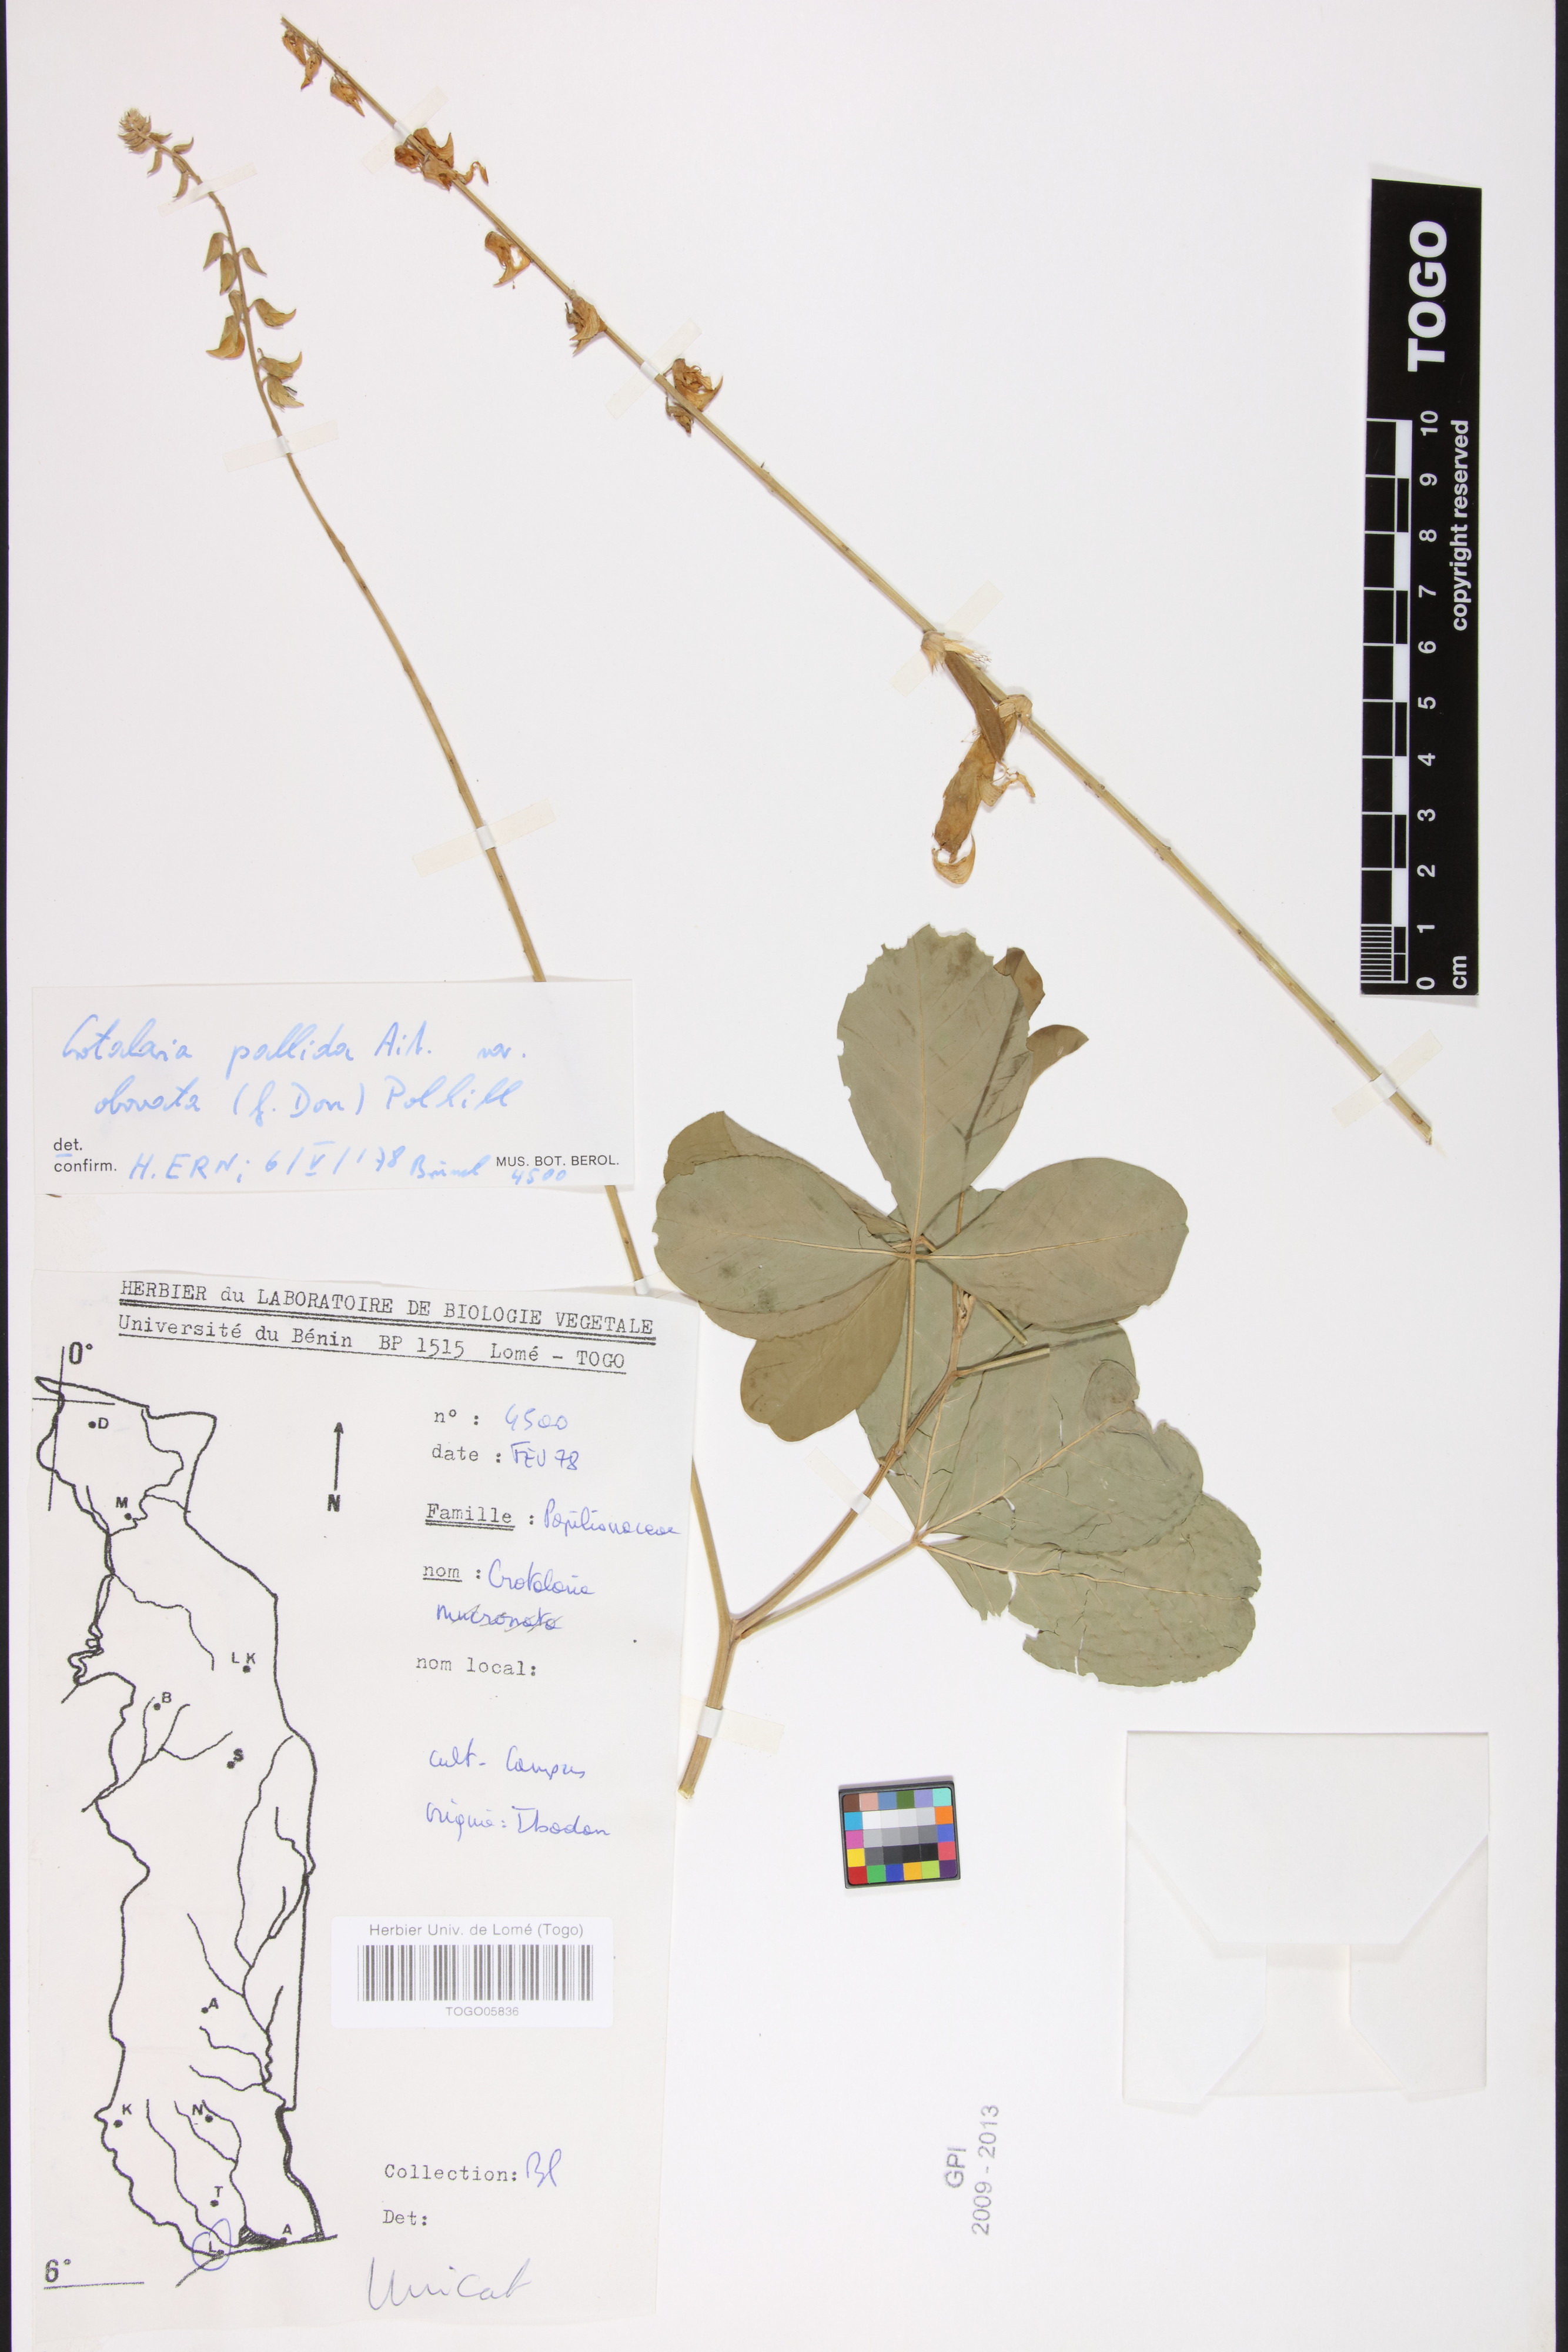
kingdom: Plantae
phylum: Tracheophyta
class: Magnoliopsida
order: Fabales
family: Fabaceae
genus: Crotalaria
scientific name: Crotalaria pallida
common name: Smooth rattlebox
